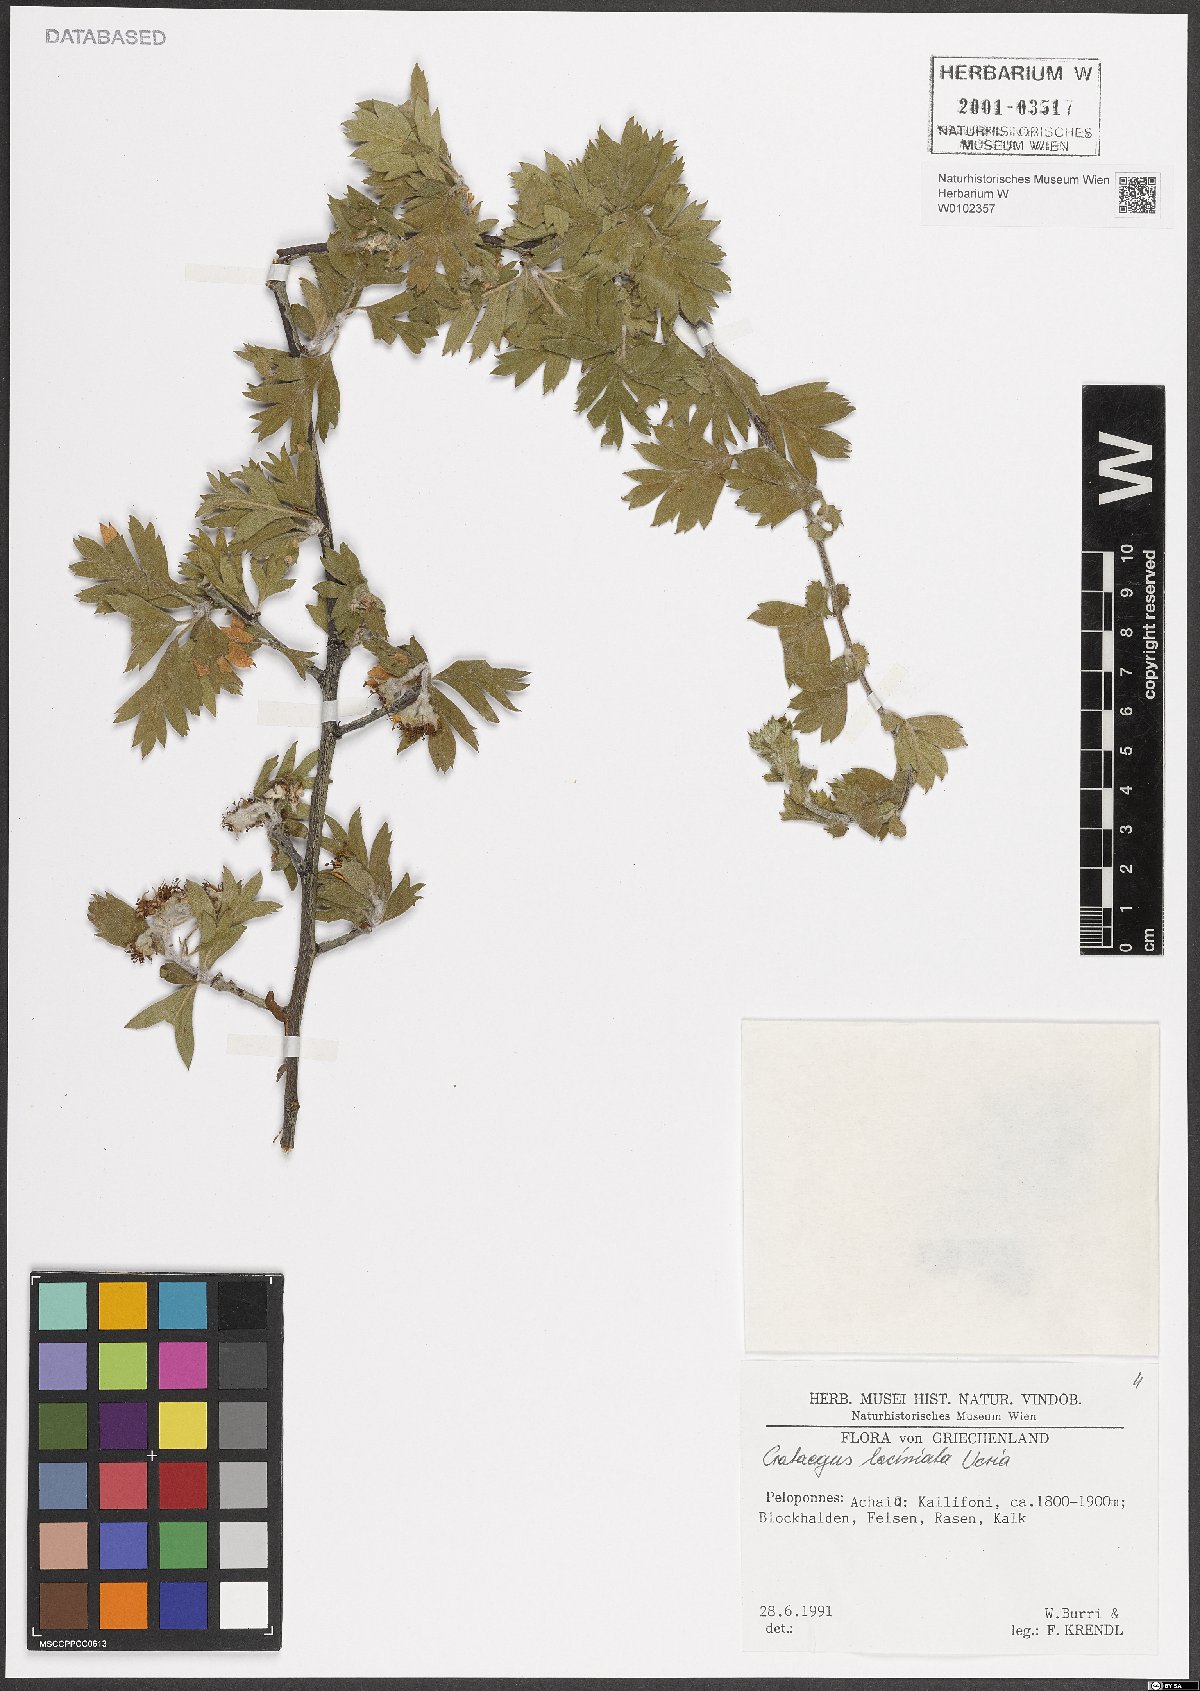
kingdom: Plantae
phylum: Tracheophyta
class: Magnoliopsida
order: Rosales
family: Rosaceae
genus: Crataegus
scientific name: Crataegus laciniata
